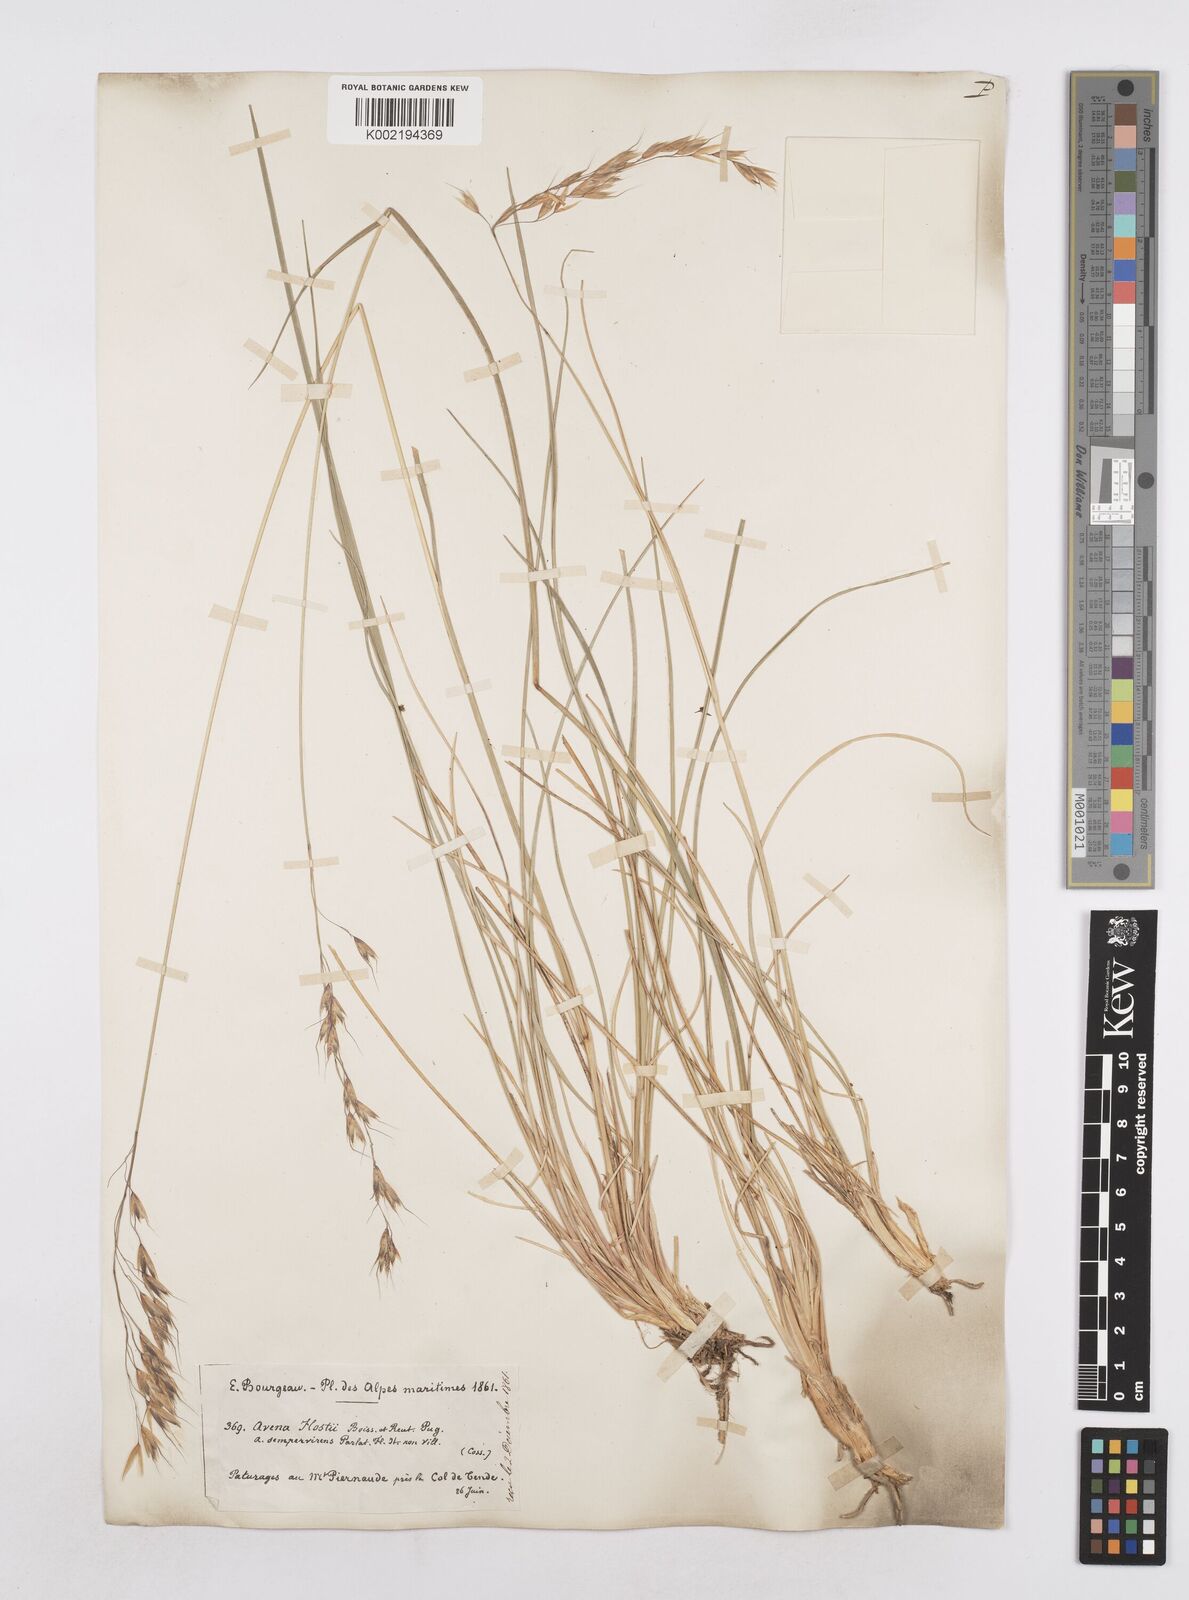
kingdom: Plantae
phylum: Tracheophyta
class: Liliopsida
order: Poales
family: Poaceae
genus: Helictotrichon
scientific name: Helictotrichon parlatorei
